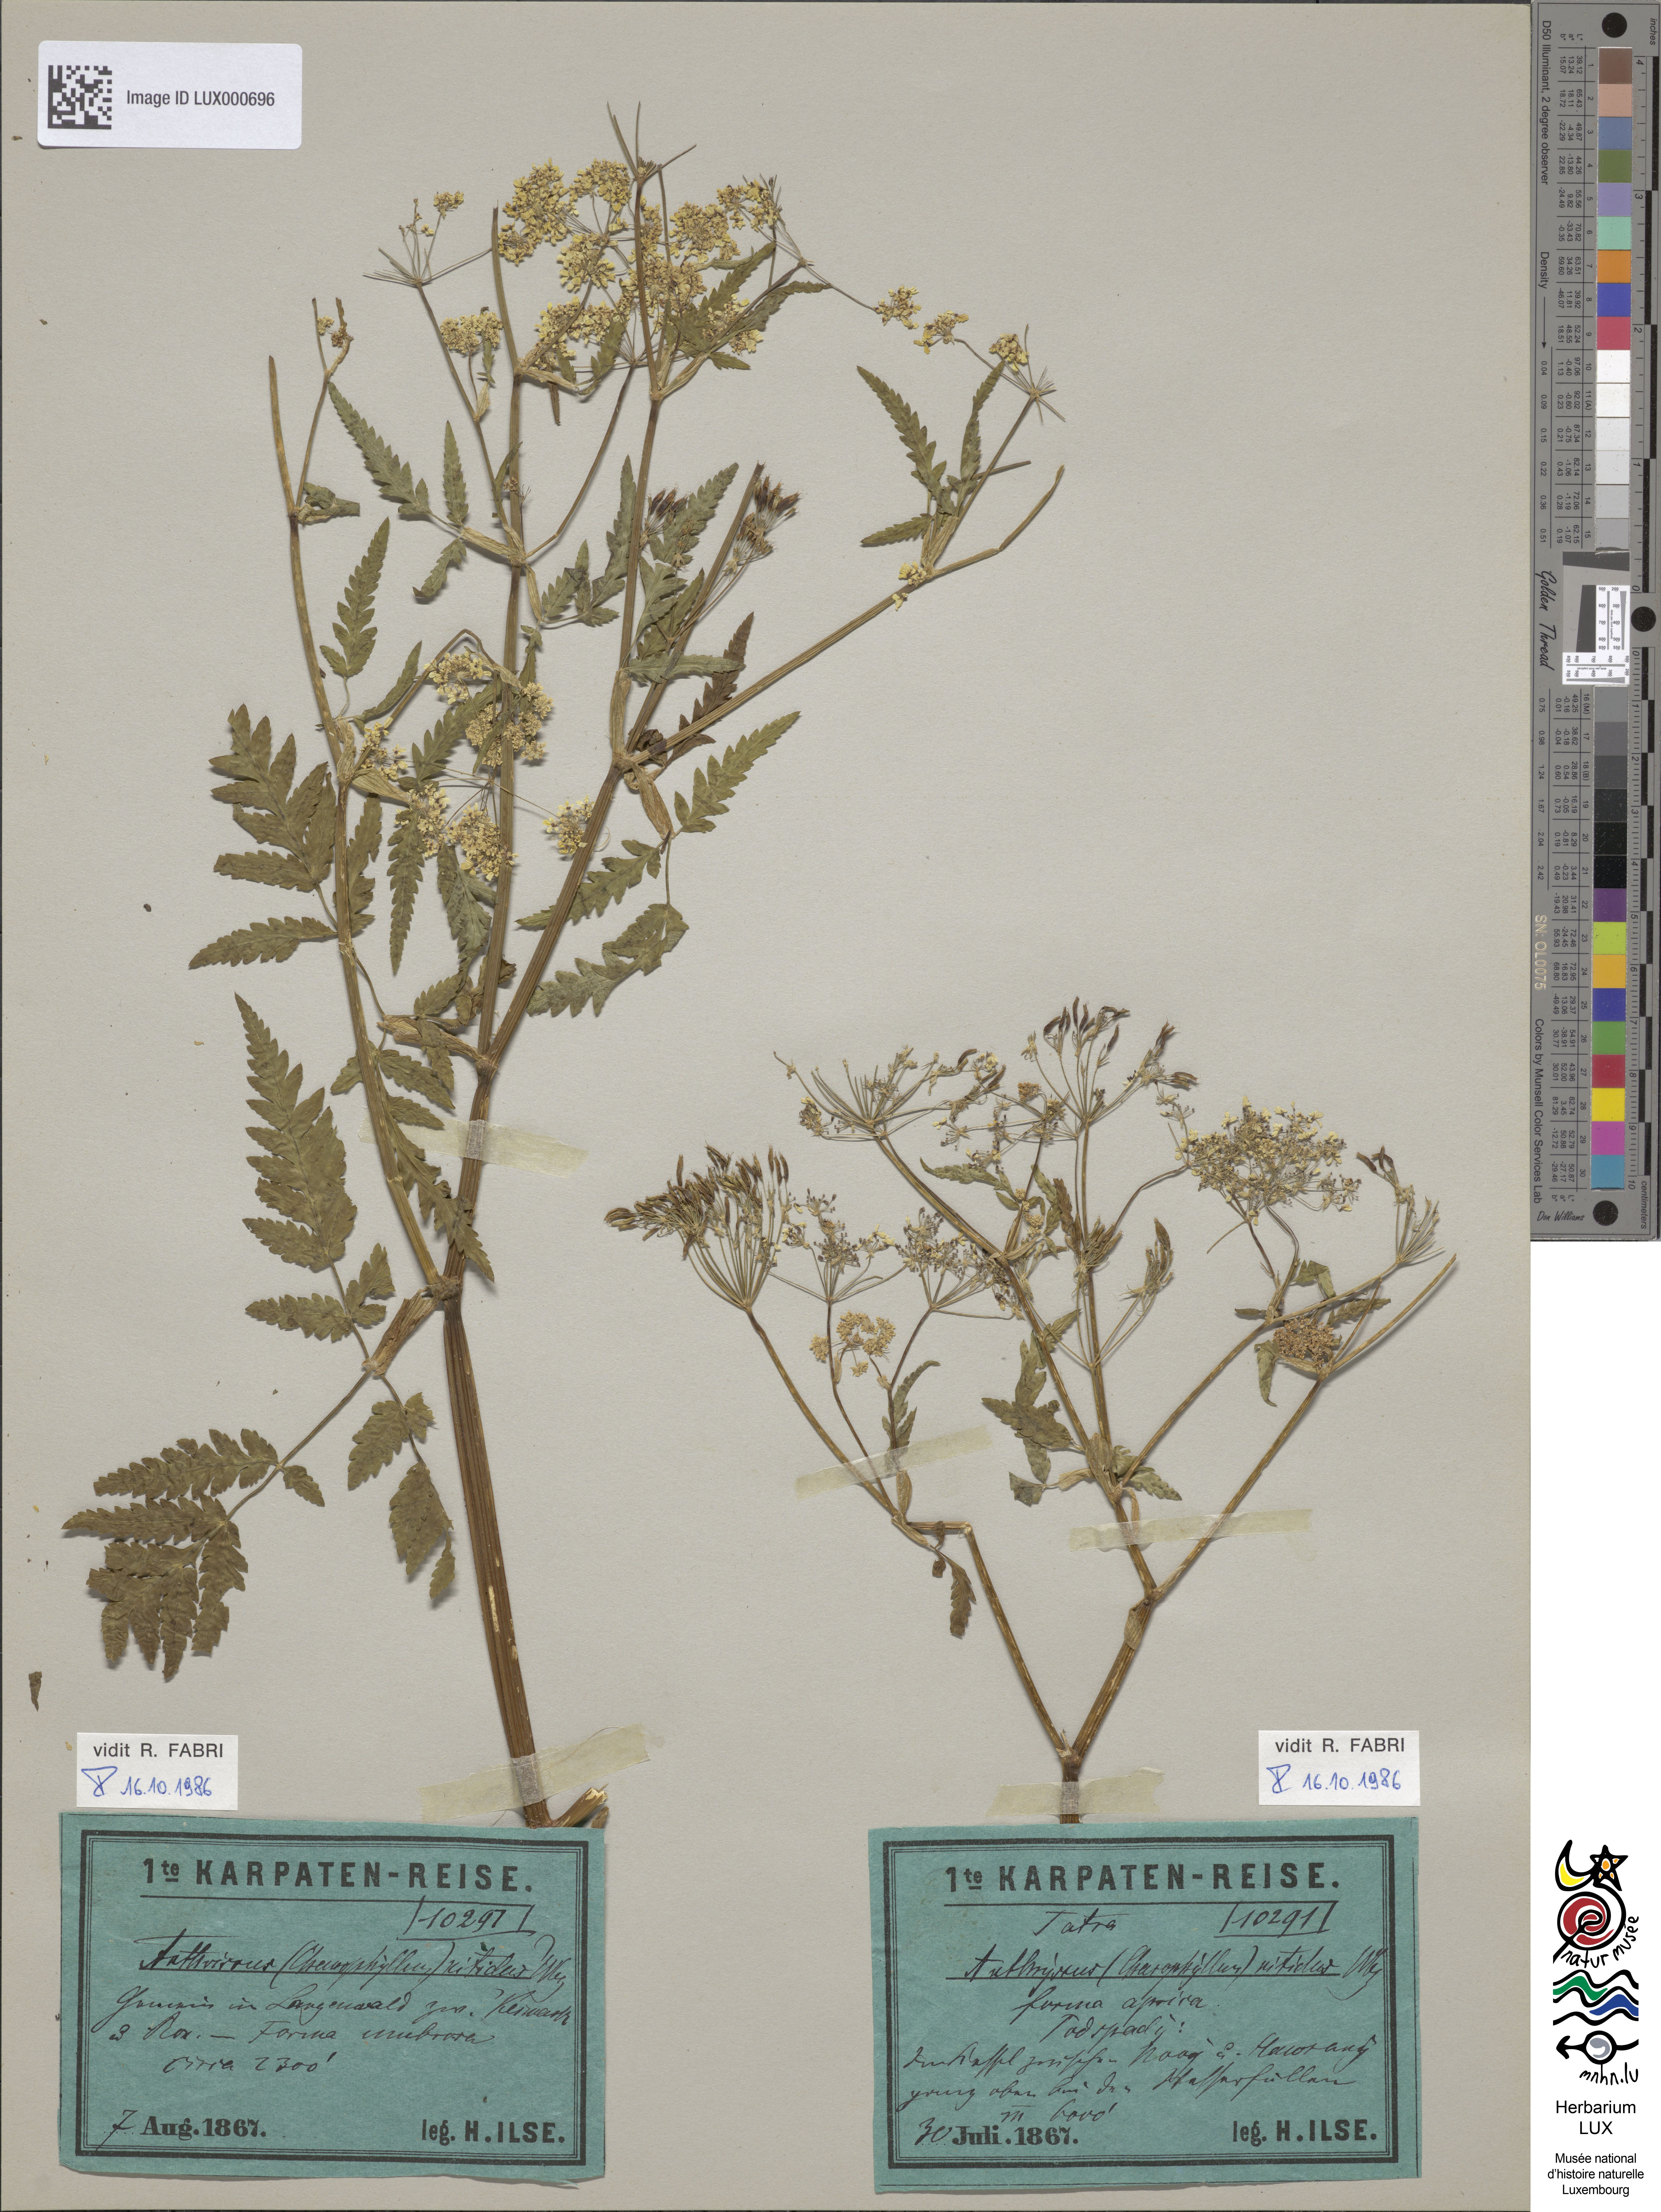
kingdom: Plantae
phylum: Tracheophyta
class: Magnoliopsida
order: Apiales
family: Apiaceae
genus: Anthriscus
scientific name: Anthriscus nitida
